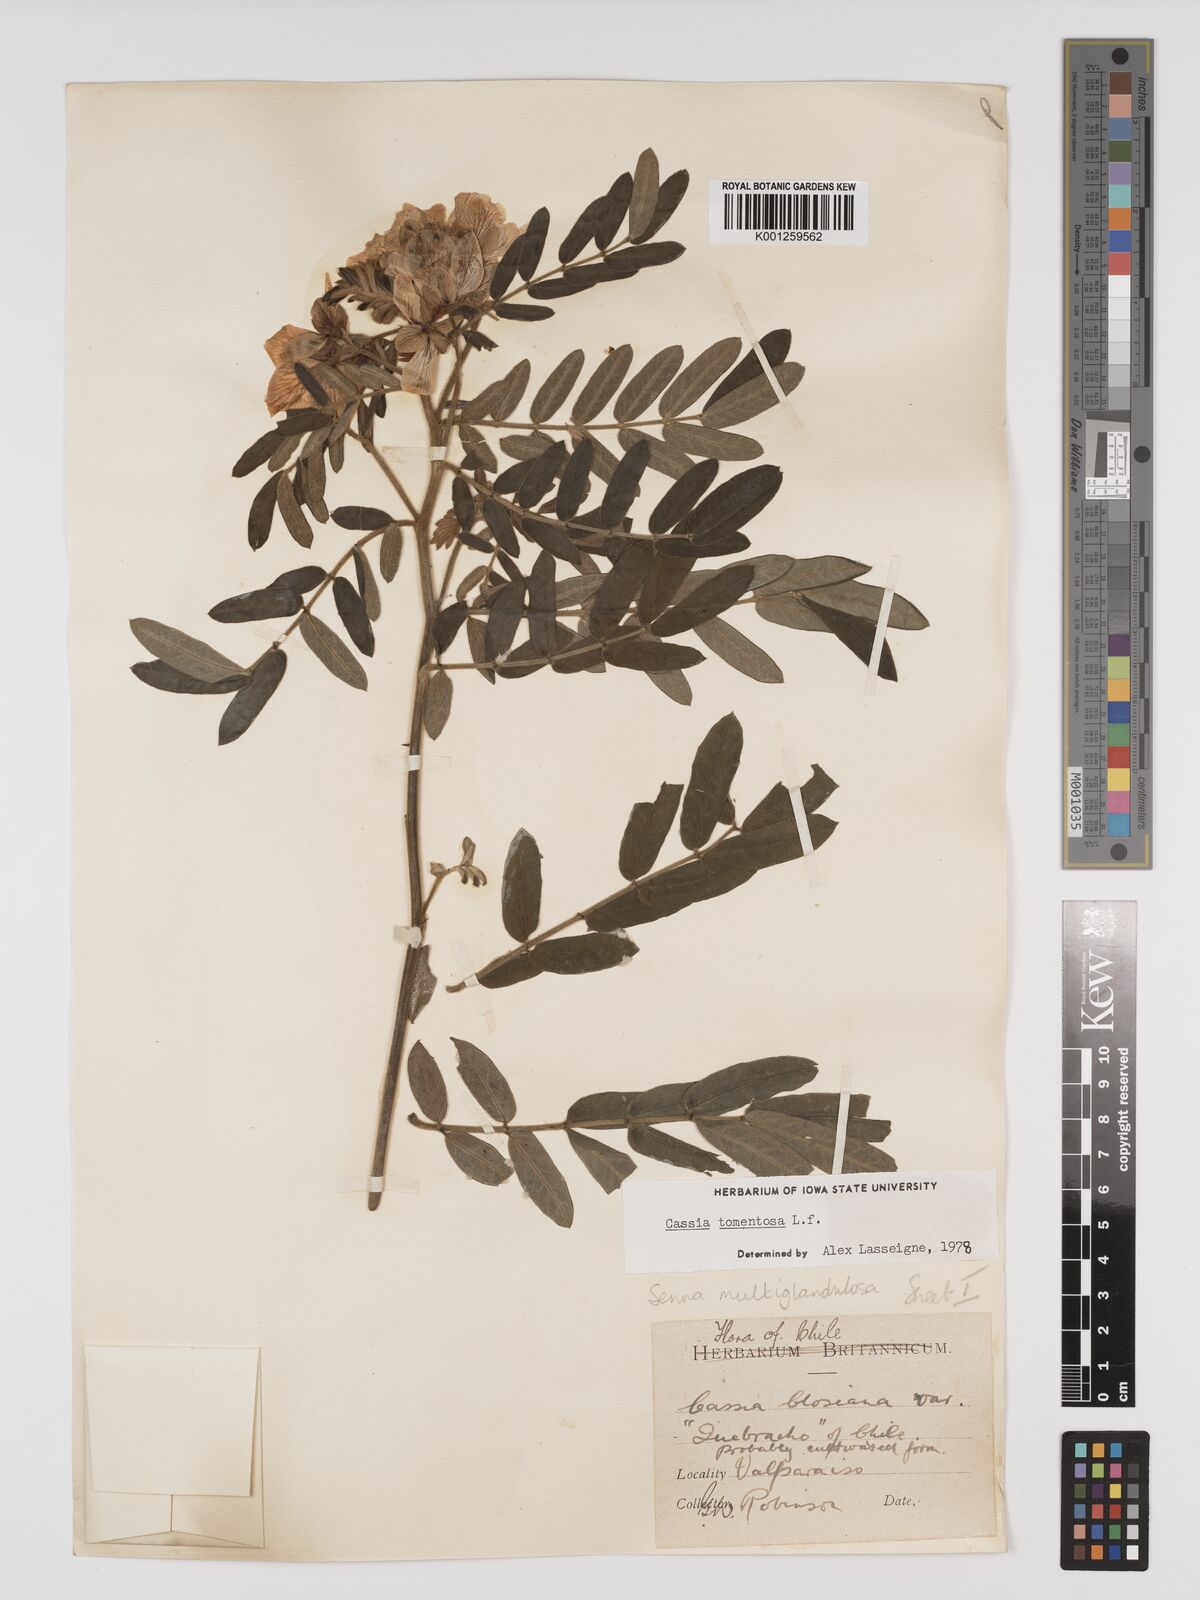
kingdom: Plantae
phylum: Tracheophyta
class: Magnoliopsida
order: Fabales
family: Fabaceae
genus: Senna
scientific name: Senna multiglandulosa
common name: Glandular senna
